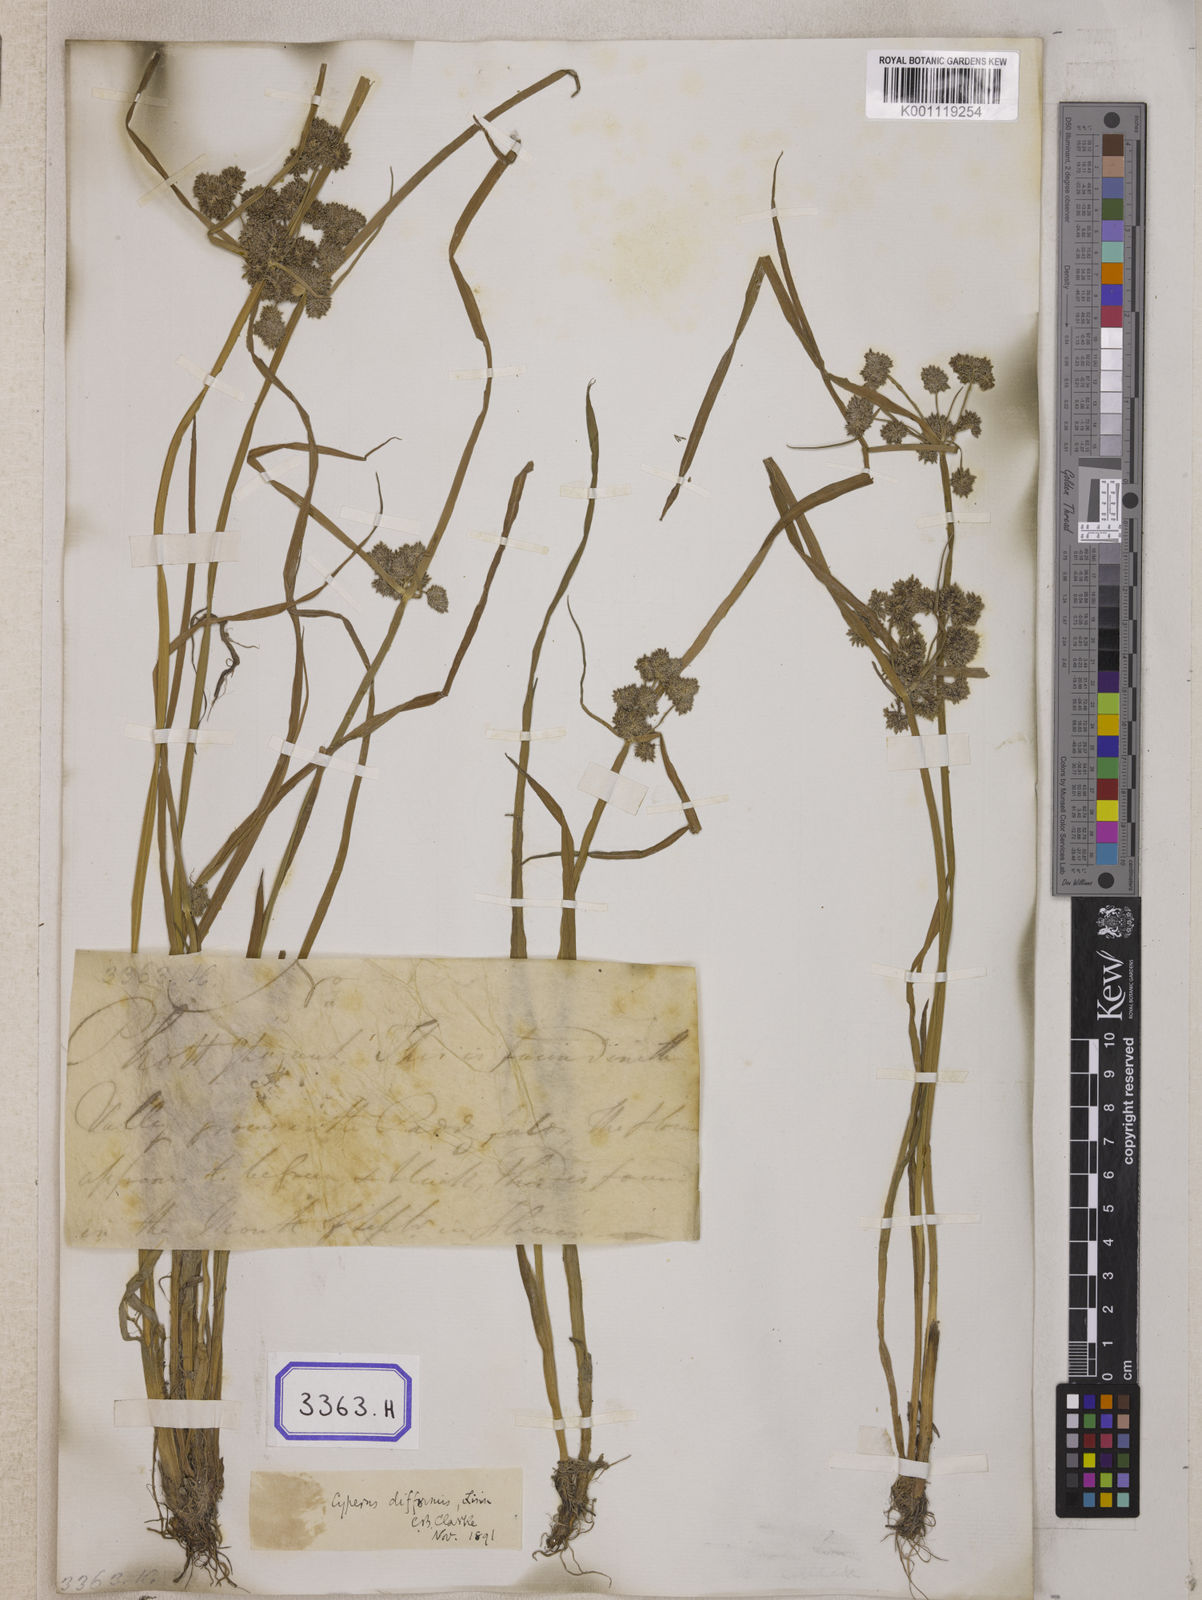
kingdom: Plantae
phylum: Tracheophyta
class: Liliopsida
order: Poales
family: Cyperaceae
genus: Cyperus
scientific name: Cyperus
